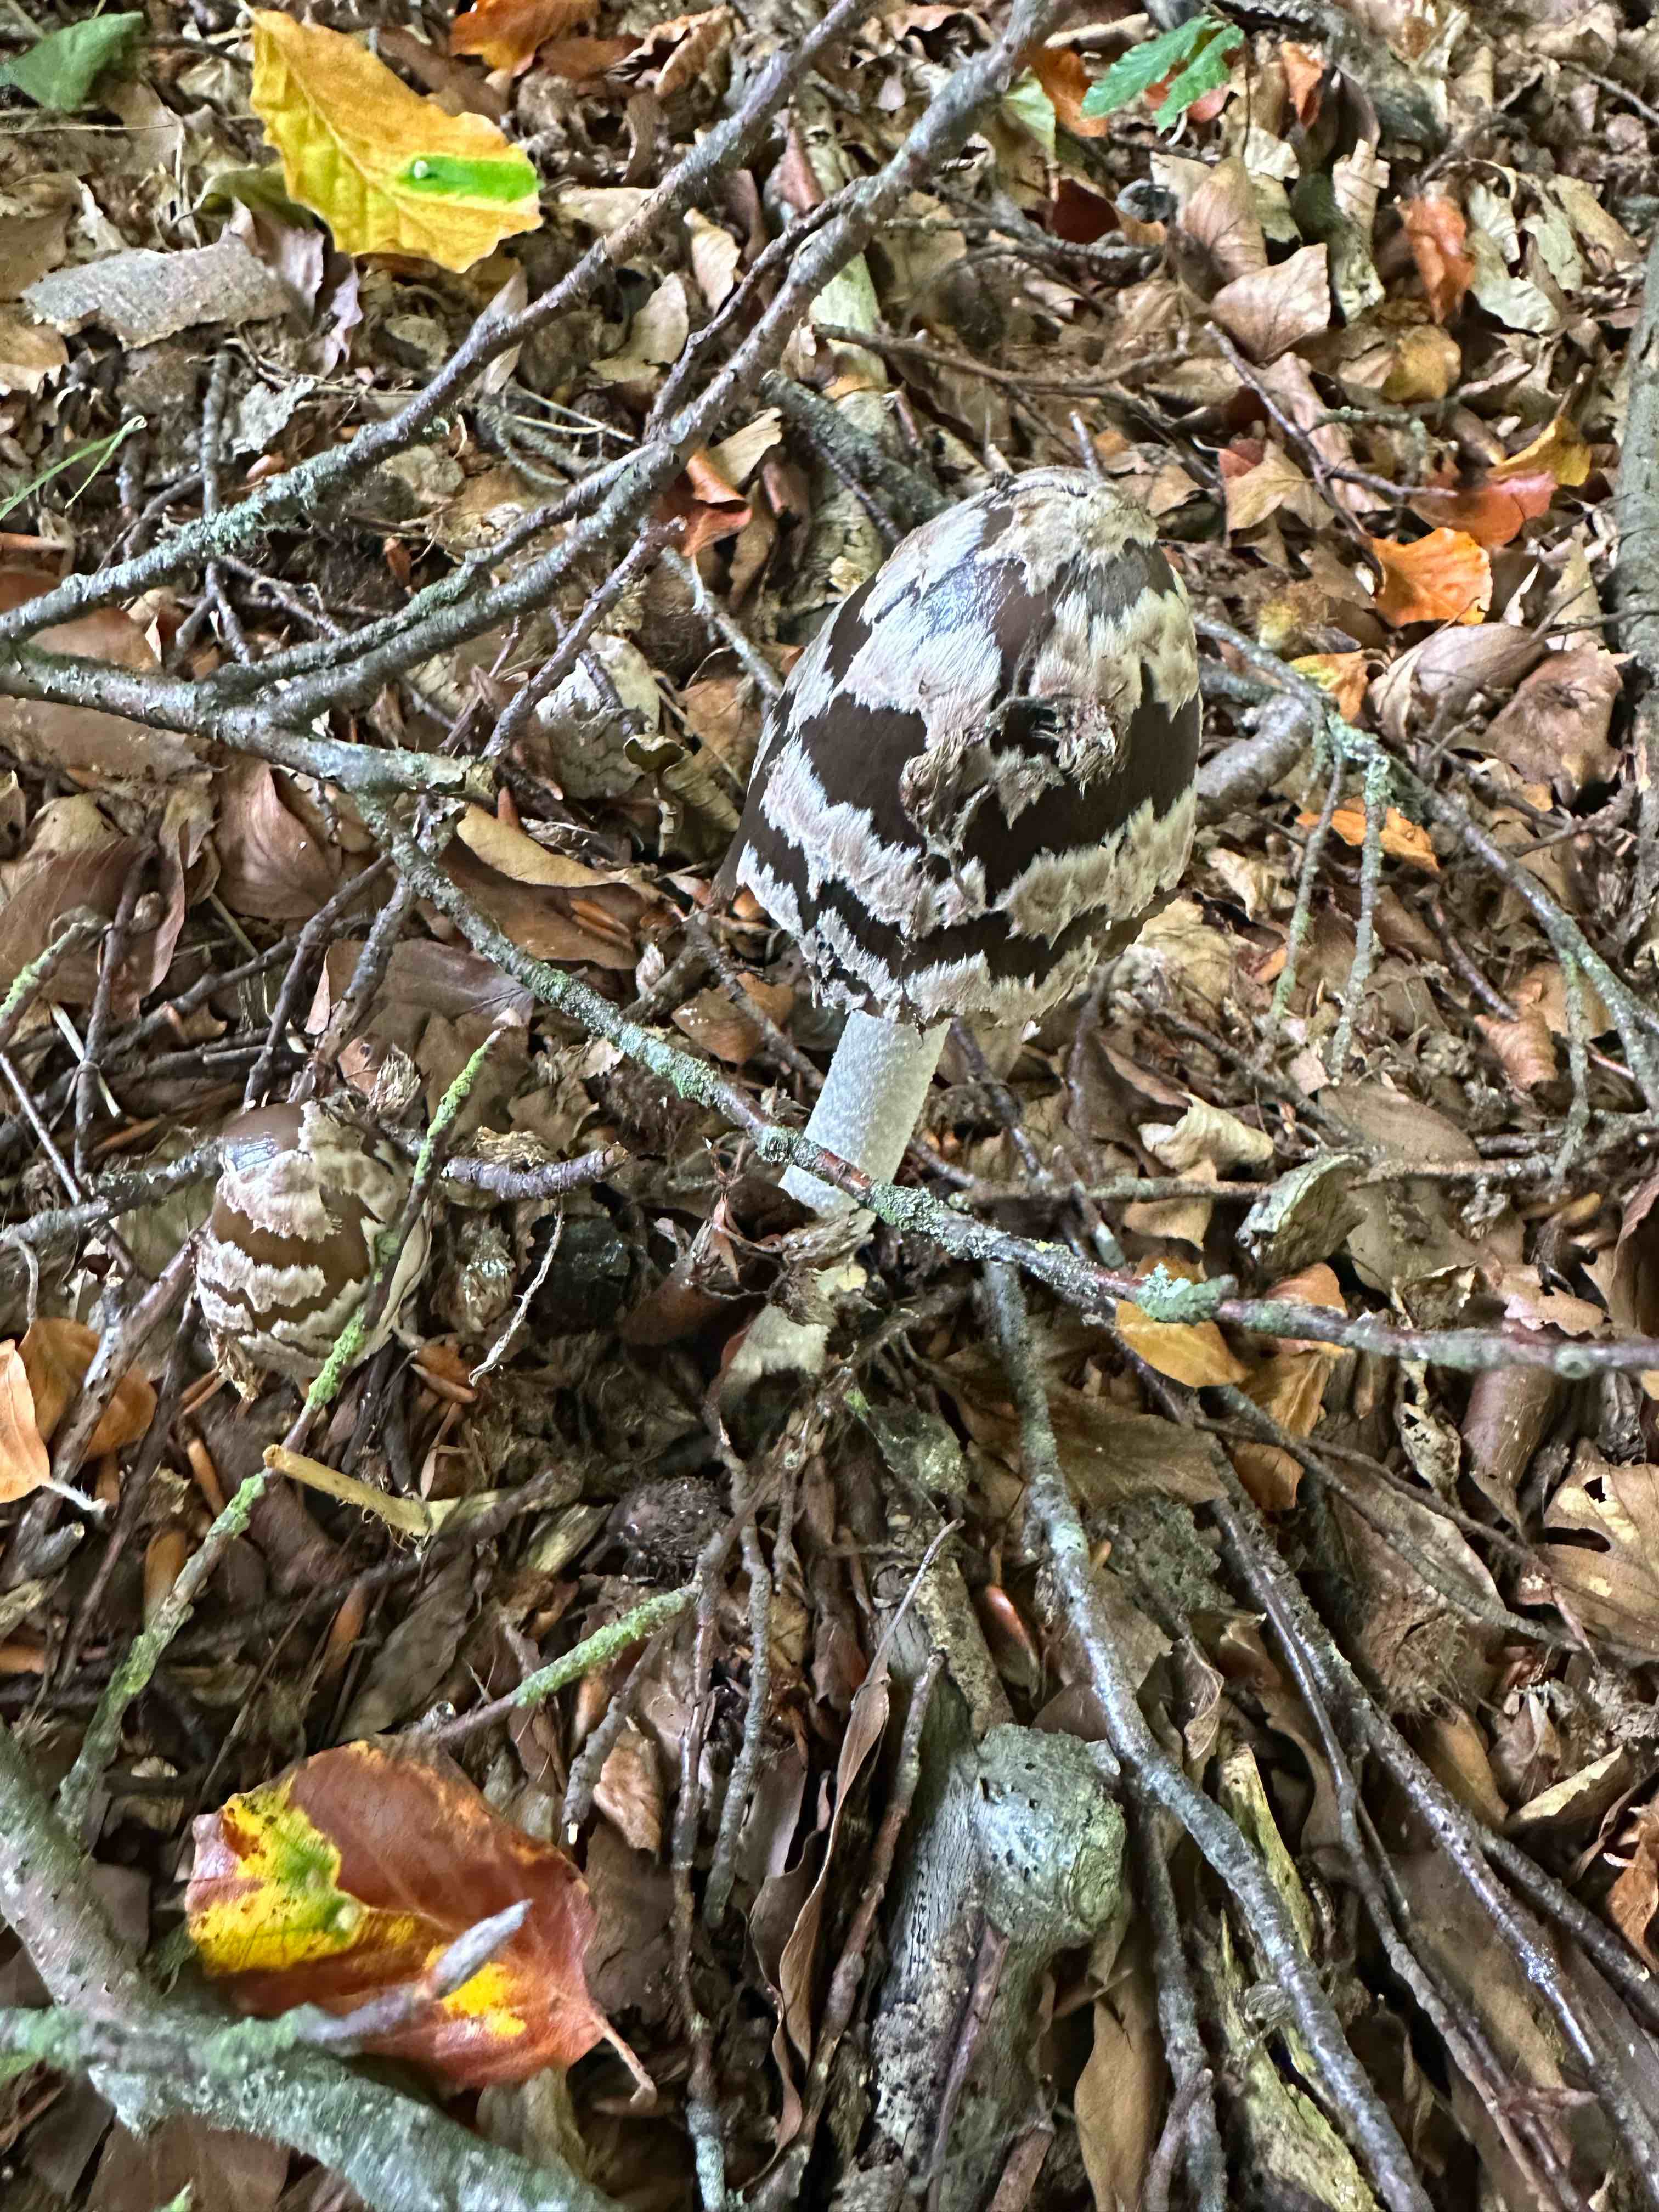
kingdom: Fungi
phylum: Basidiomycota
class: Agaricomycetes
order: Agaricales
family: Psathyrellaceae
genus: Coprinopsis
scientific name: Coprinopsis picacea
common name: skade-blækhat
